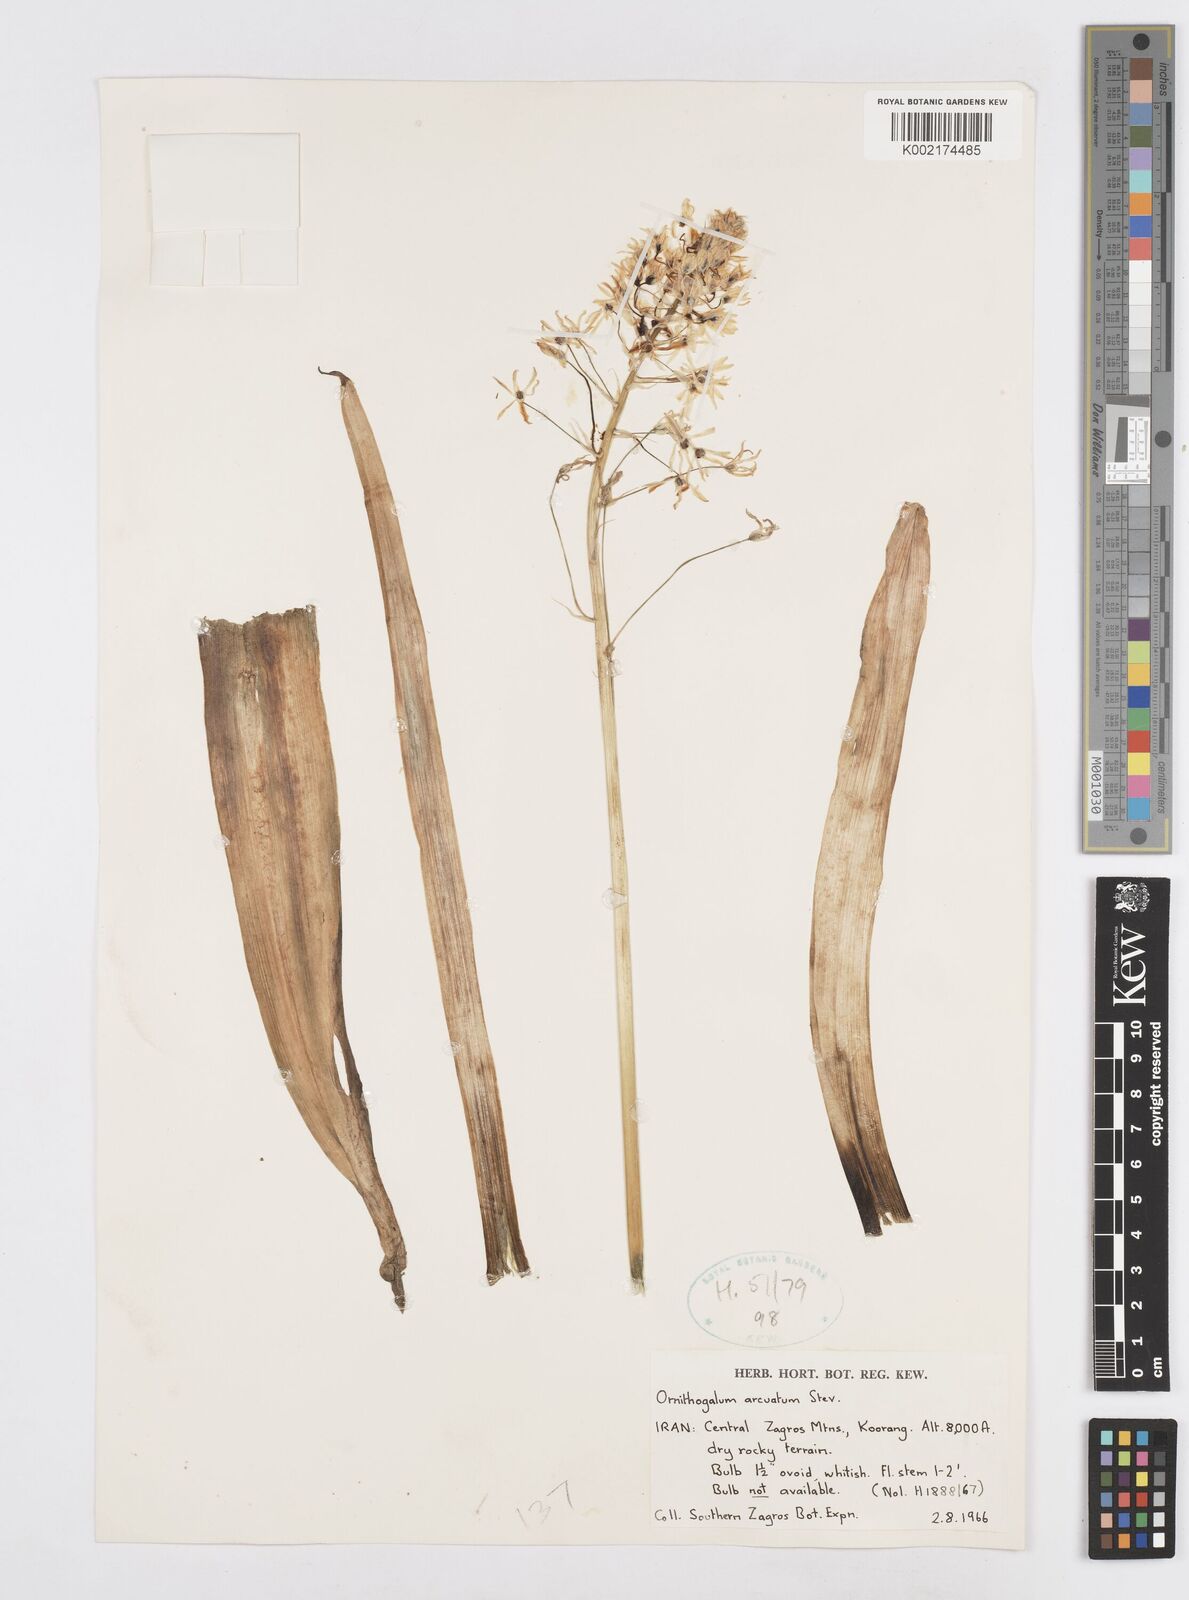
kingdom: Plantae
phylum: Tracheophyta
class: Liliopsida
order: Asparagales
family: Asparagaceae
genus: Ornithogalum
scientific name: Ornithogalum narbonense
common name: Bath-asparagus
